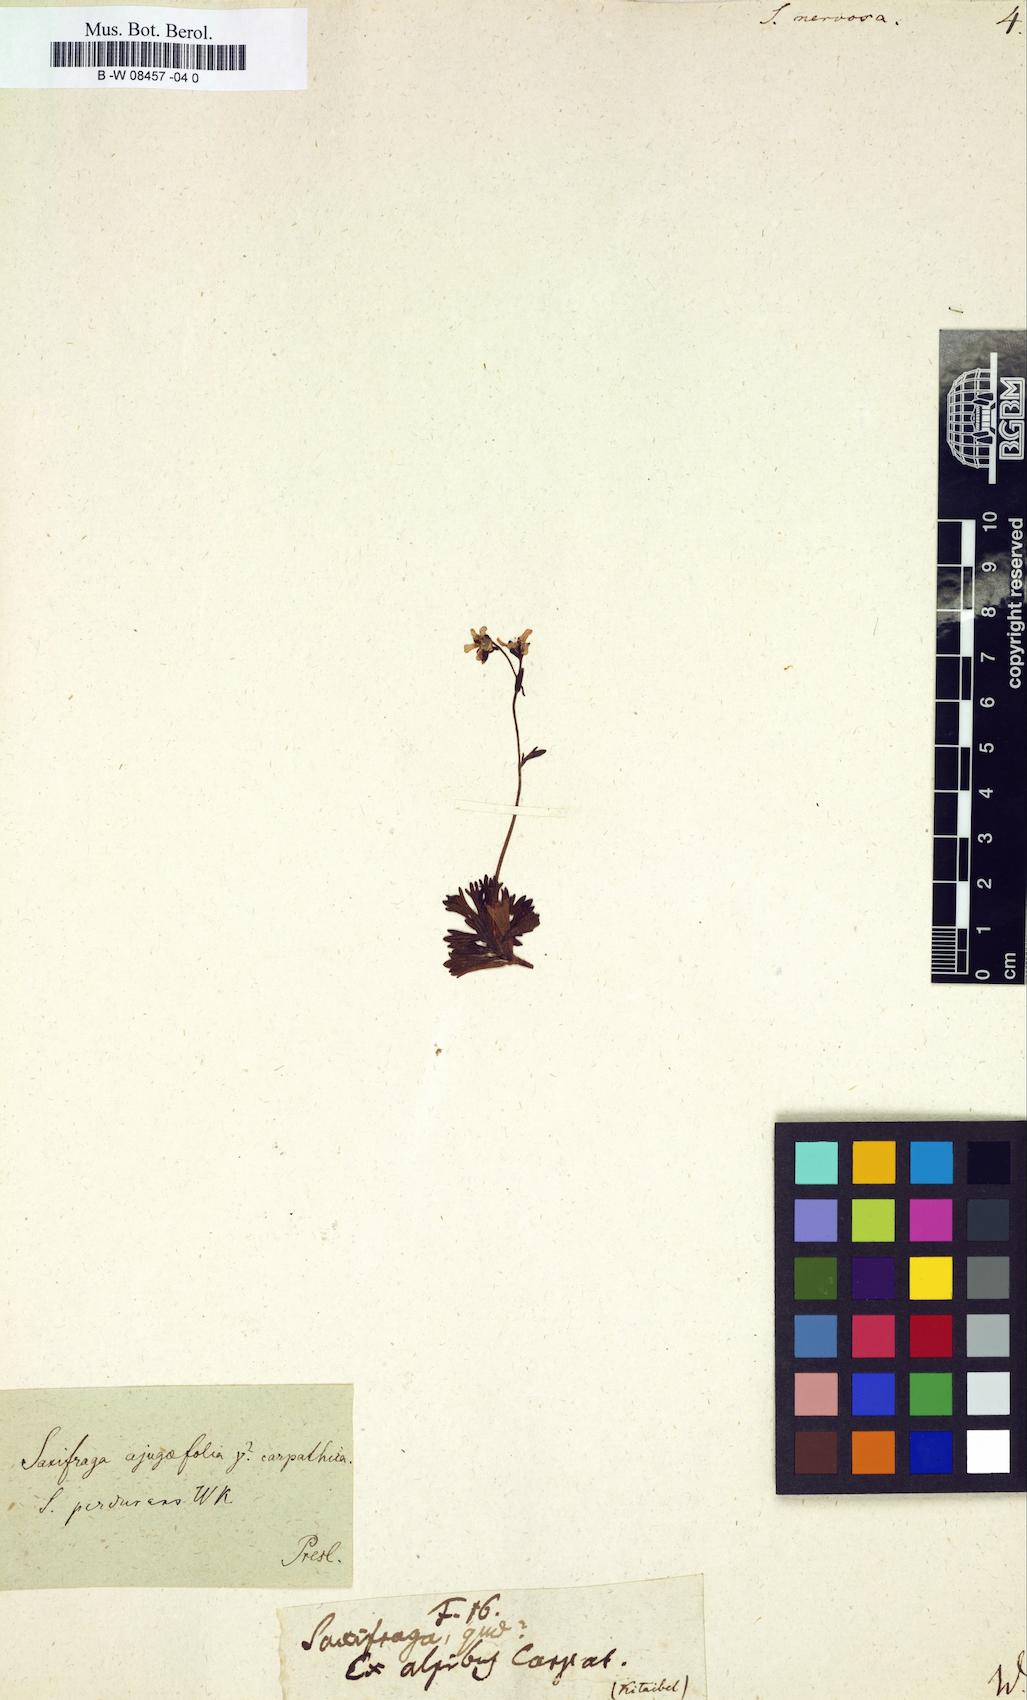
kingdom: Plantae
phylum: Tracheophyta
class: Magnoliopsida
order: Saxifragales
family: Saxifragaceae
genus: Saxifraga
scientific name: Saxifraga
